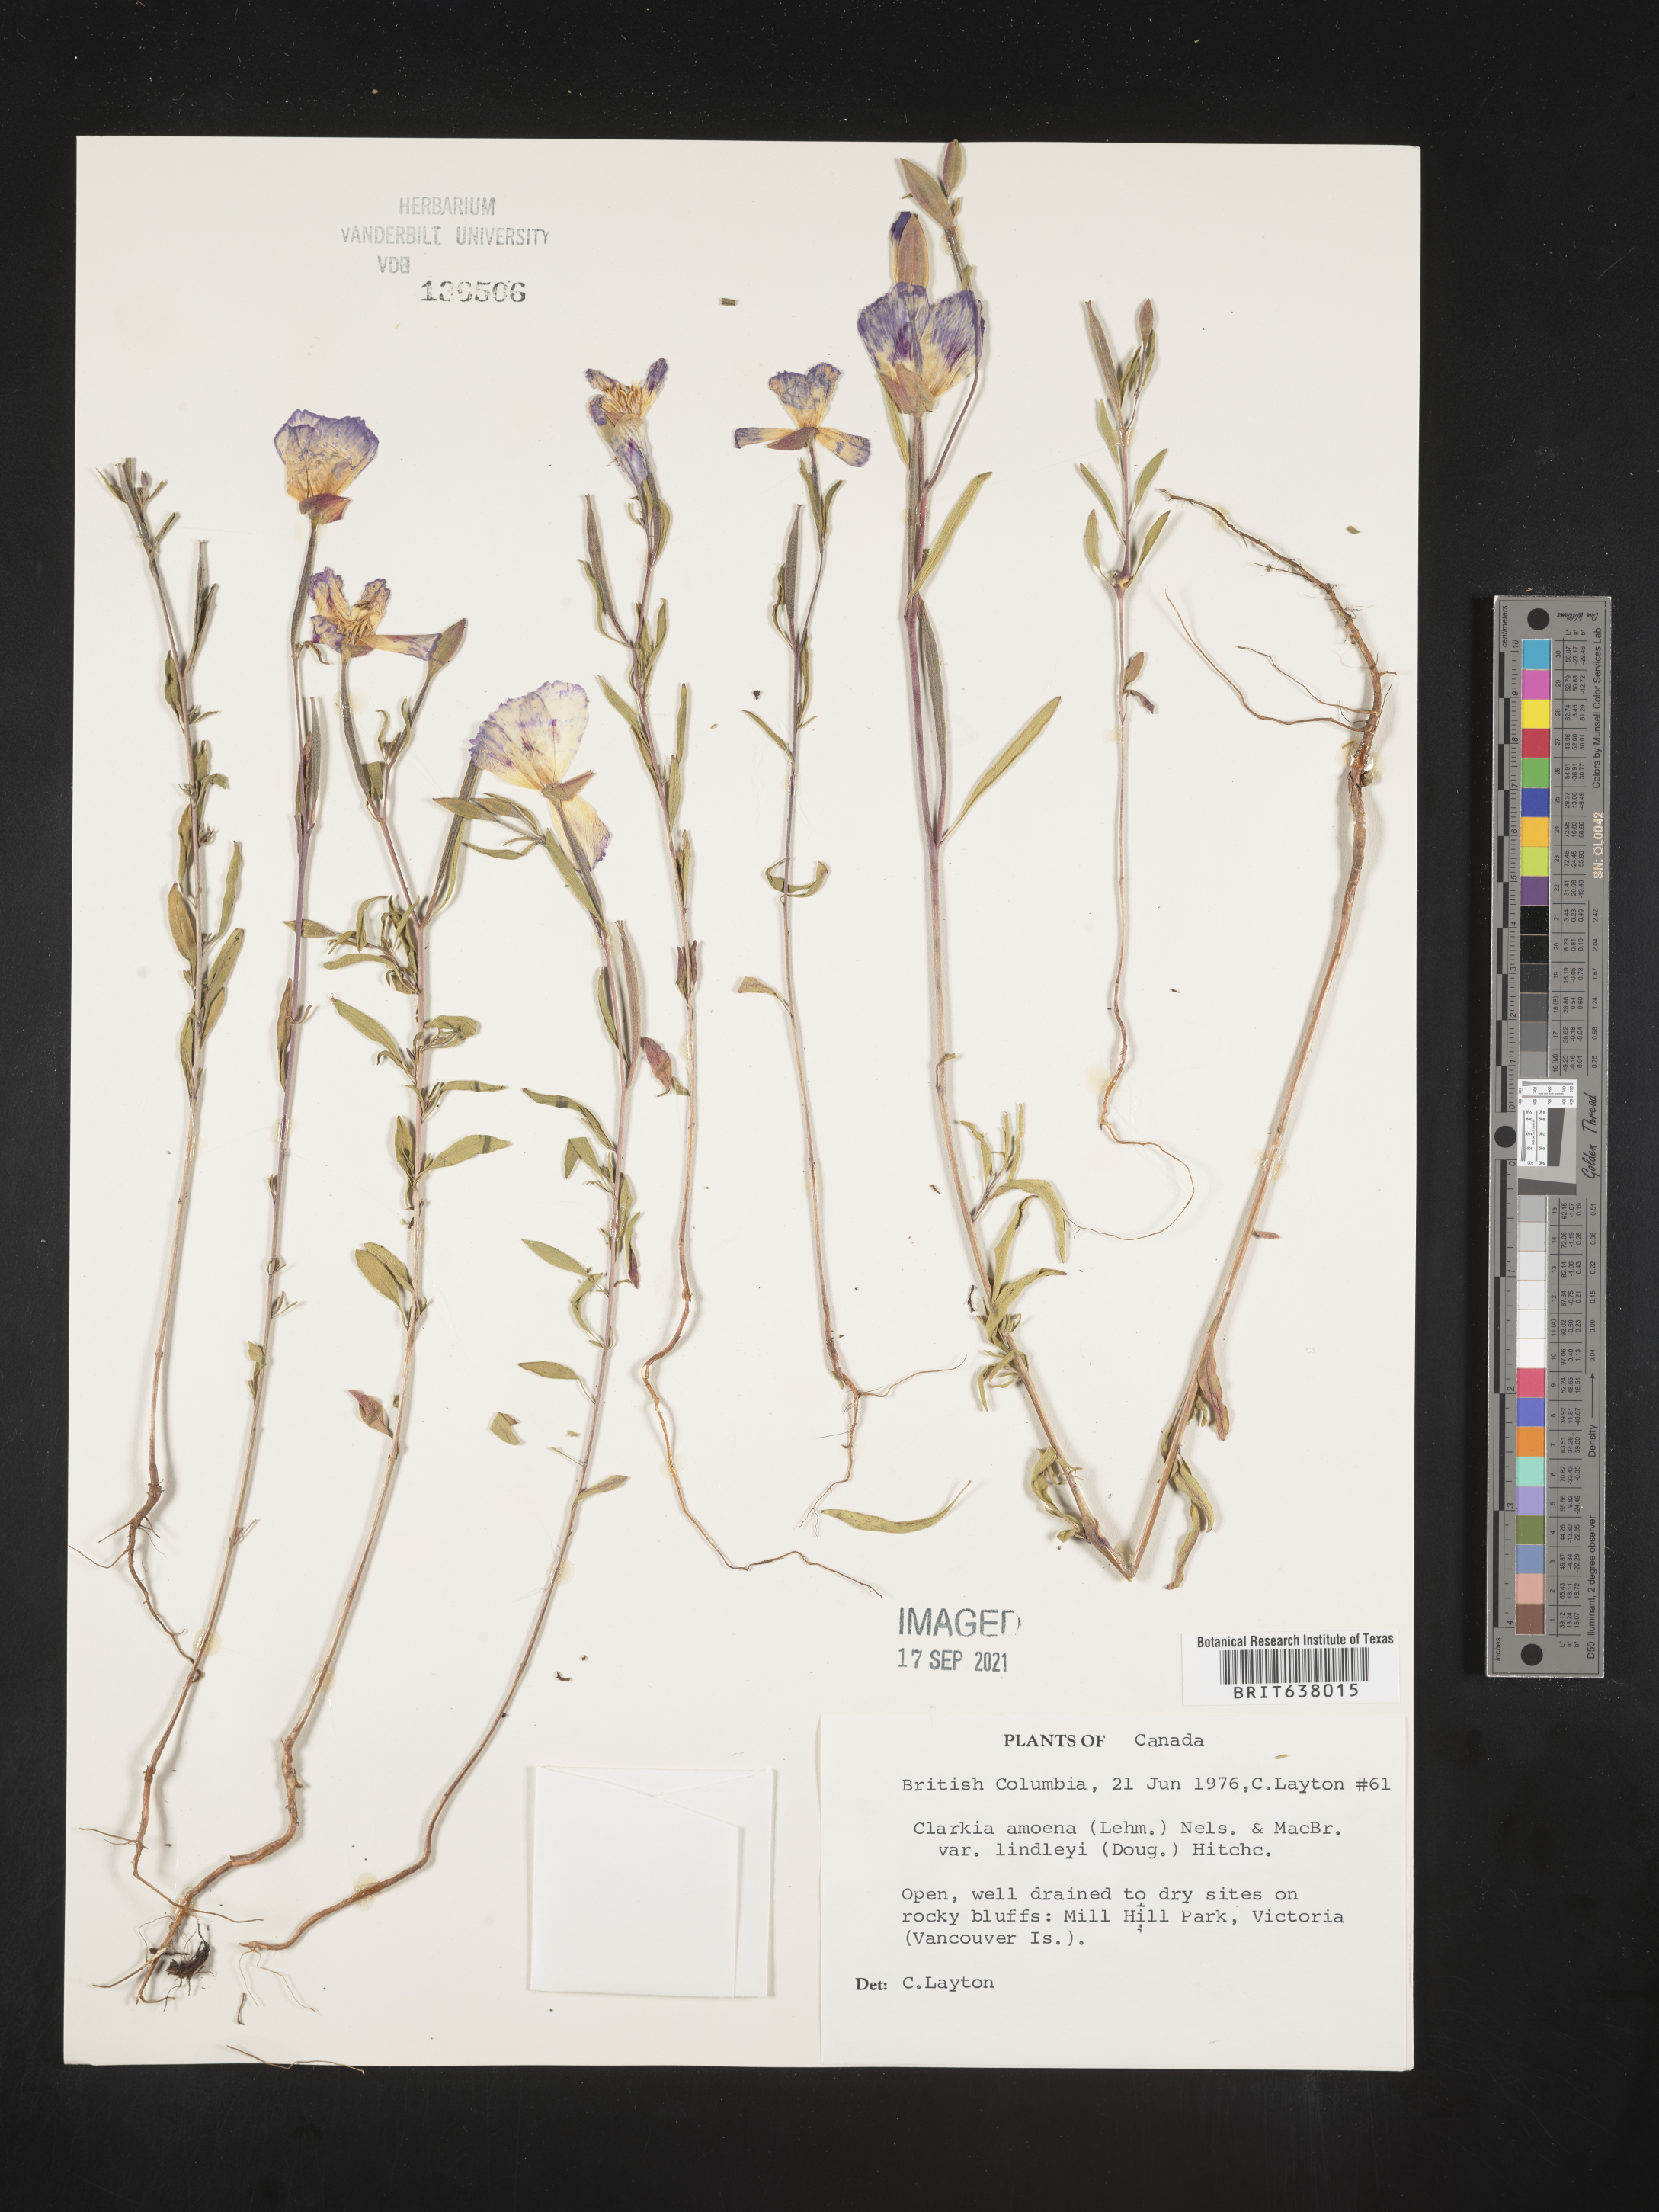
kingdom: Plantae
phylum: Tracheophyta
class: Magnoliopsida
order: Myrtales
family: Onagraceae
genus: Clarkia
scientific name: Clarkia
